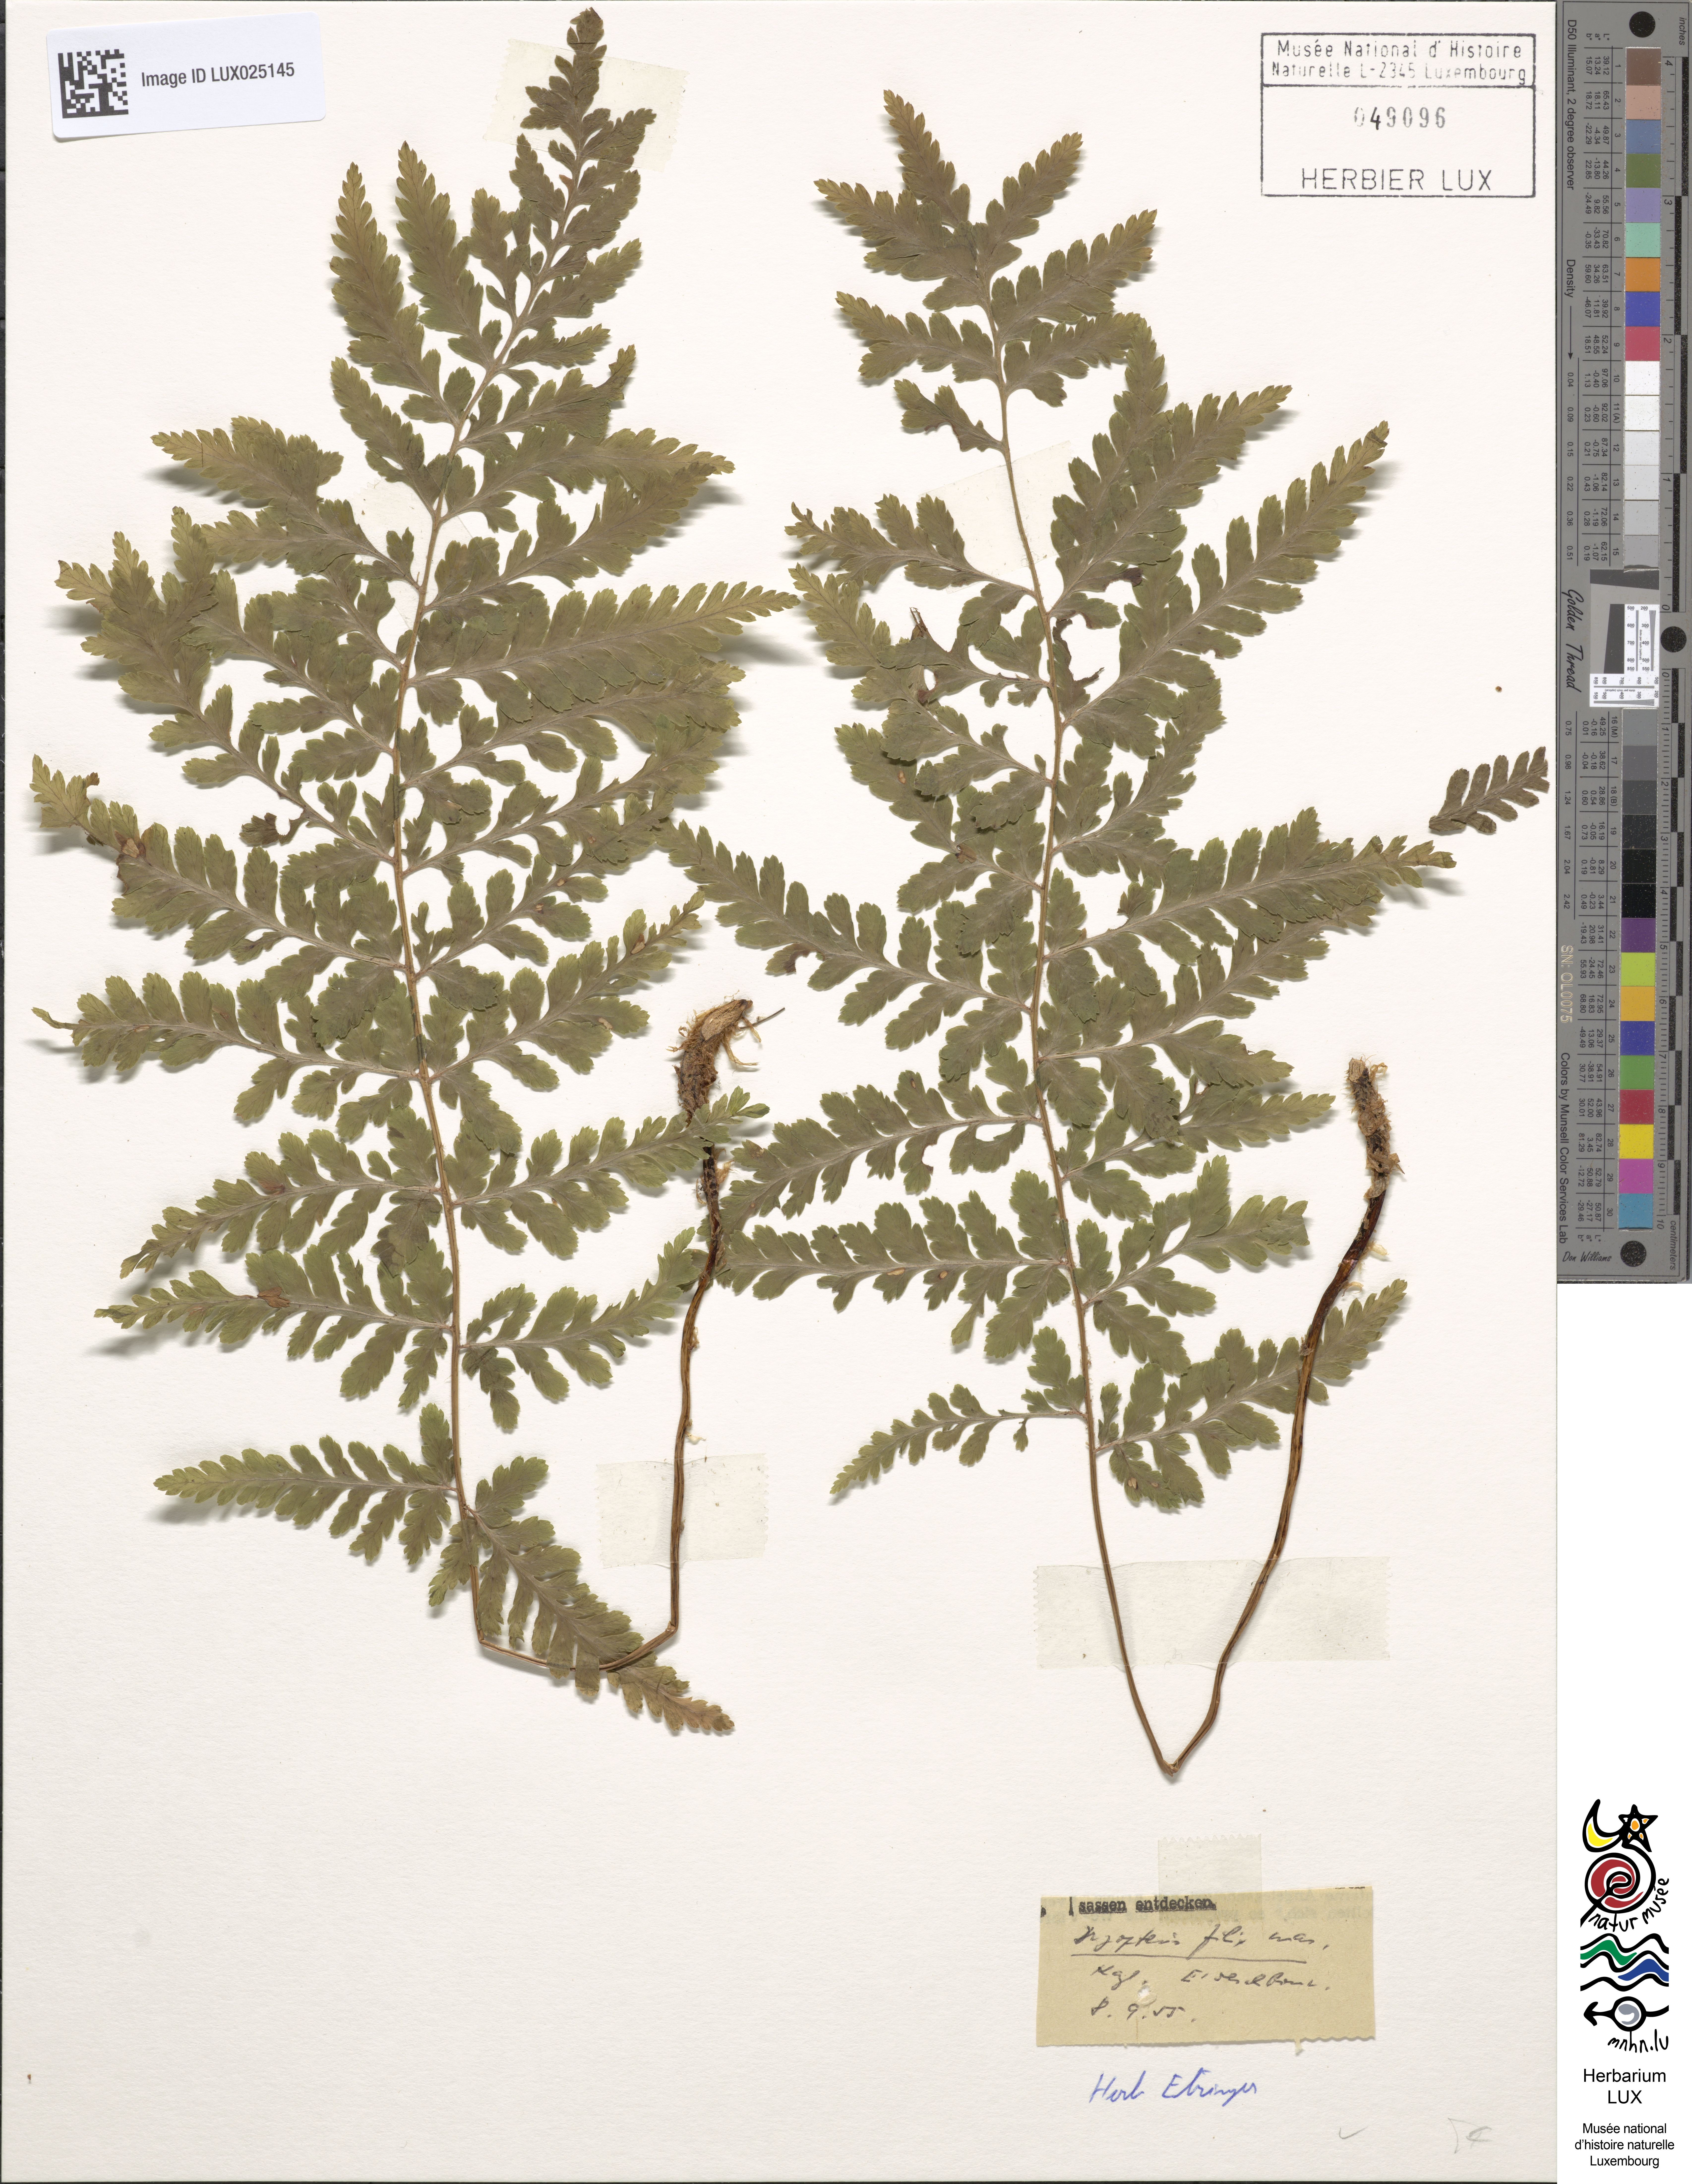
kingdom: Plantae
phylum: Tracheophyta
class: Polypodiopsida
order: Polypodiales
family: Dryopteridaceae
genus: Dryopteris
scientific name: Dryopteris filix-mas
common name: Male fern
